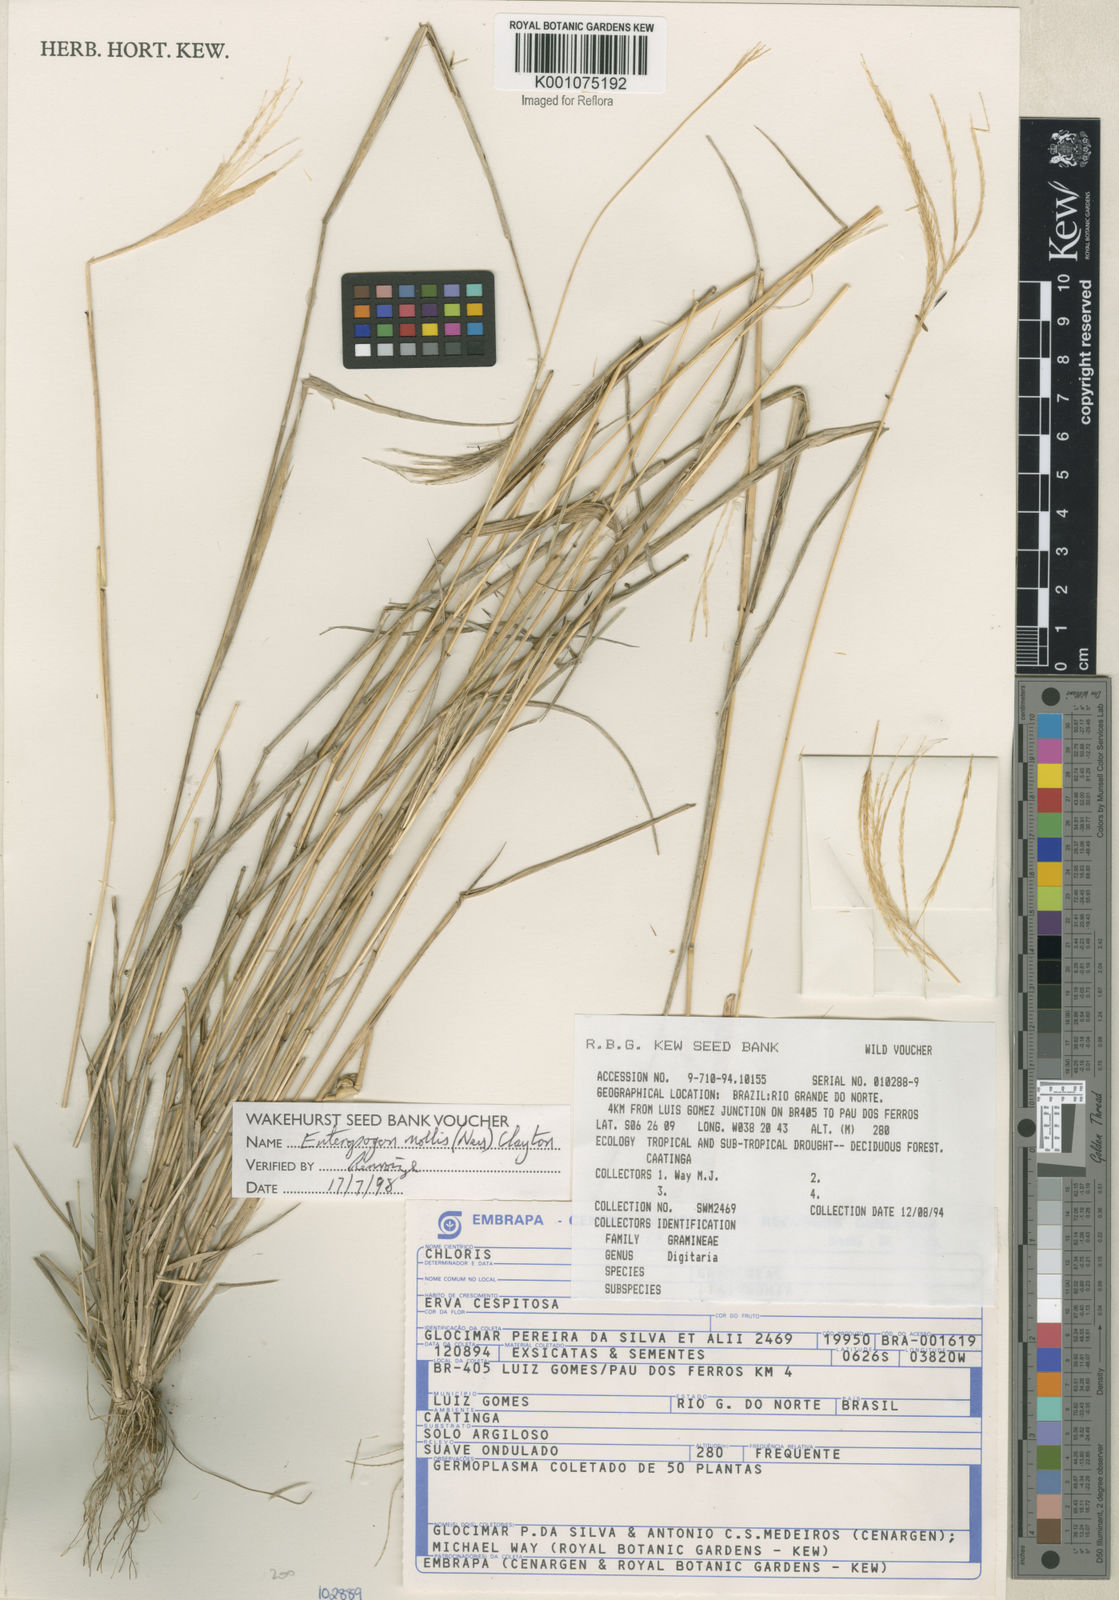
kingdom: Plantae
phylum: Tracheophyta
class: Liliopsida
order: Poales
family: Poaceae
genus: Leptochloa
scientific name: Leptochloa anisopoda
